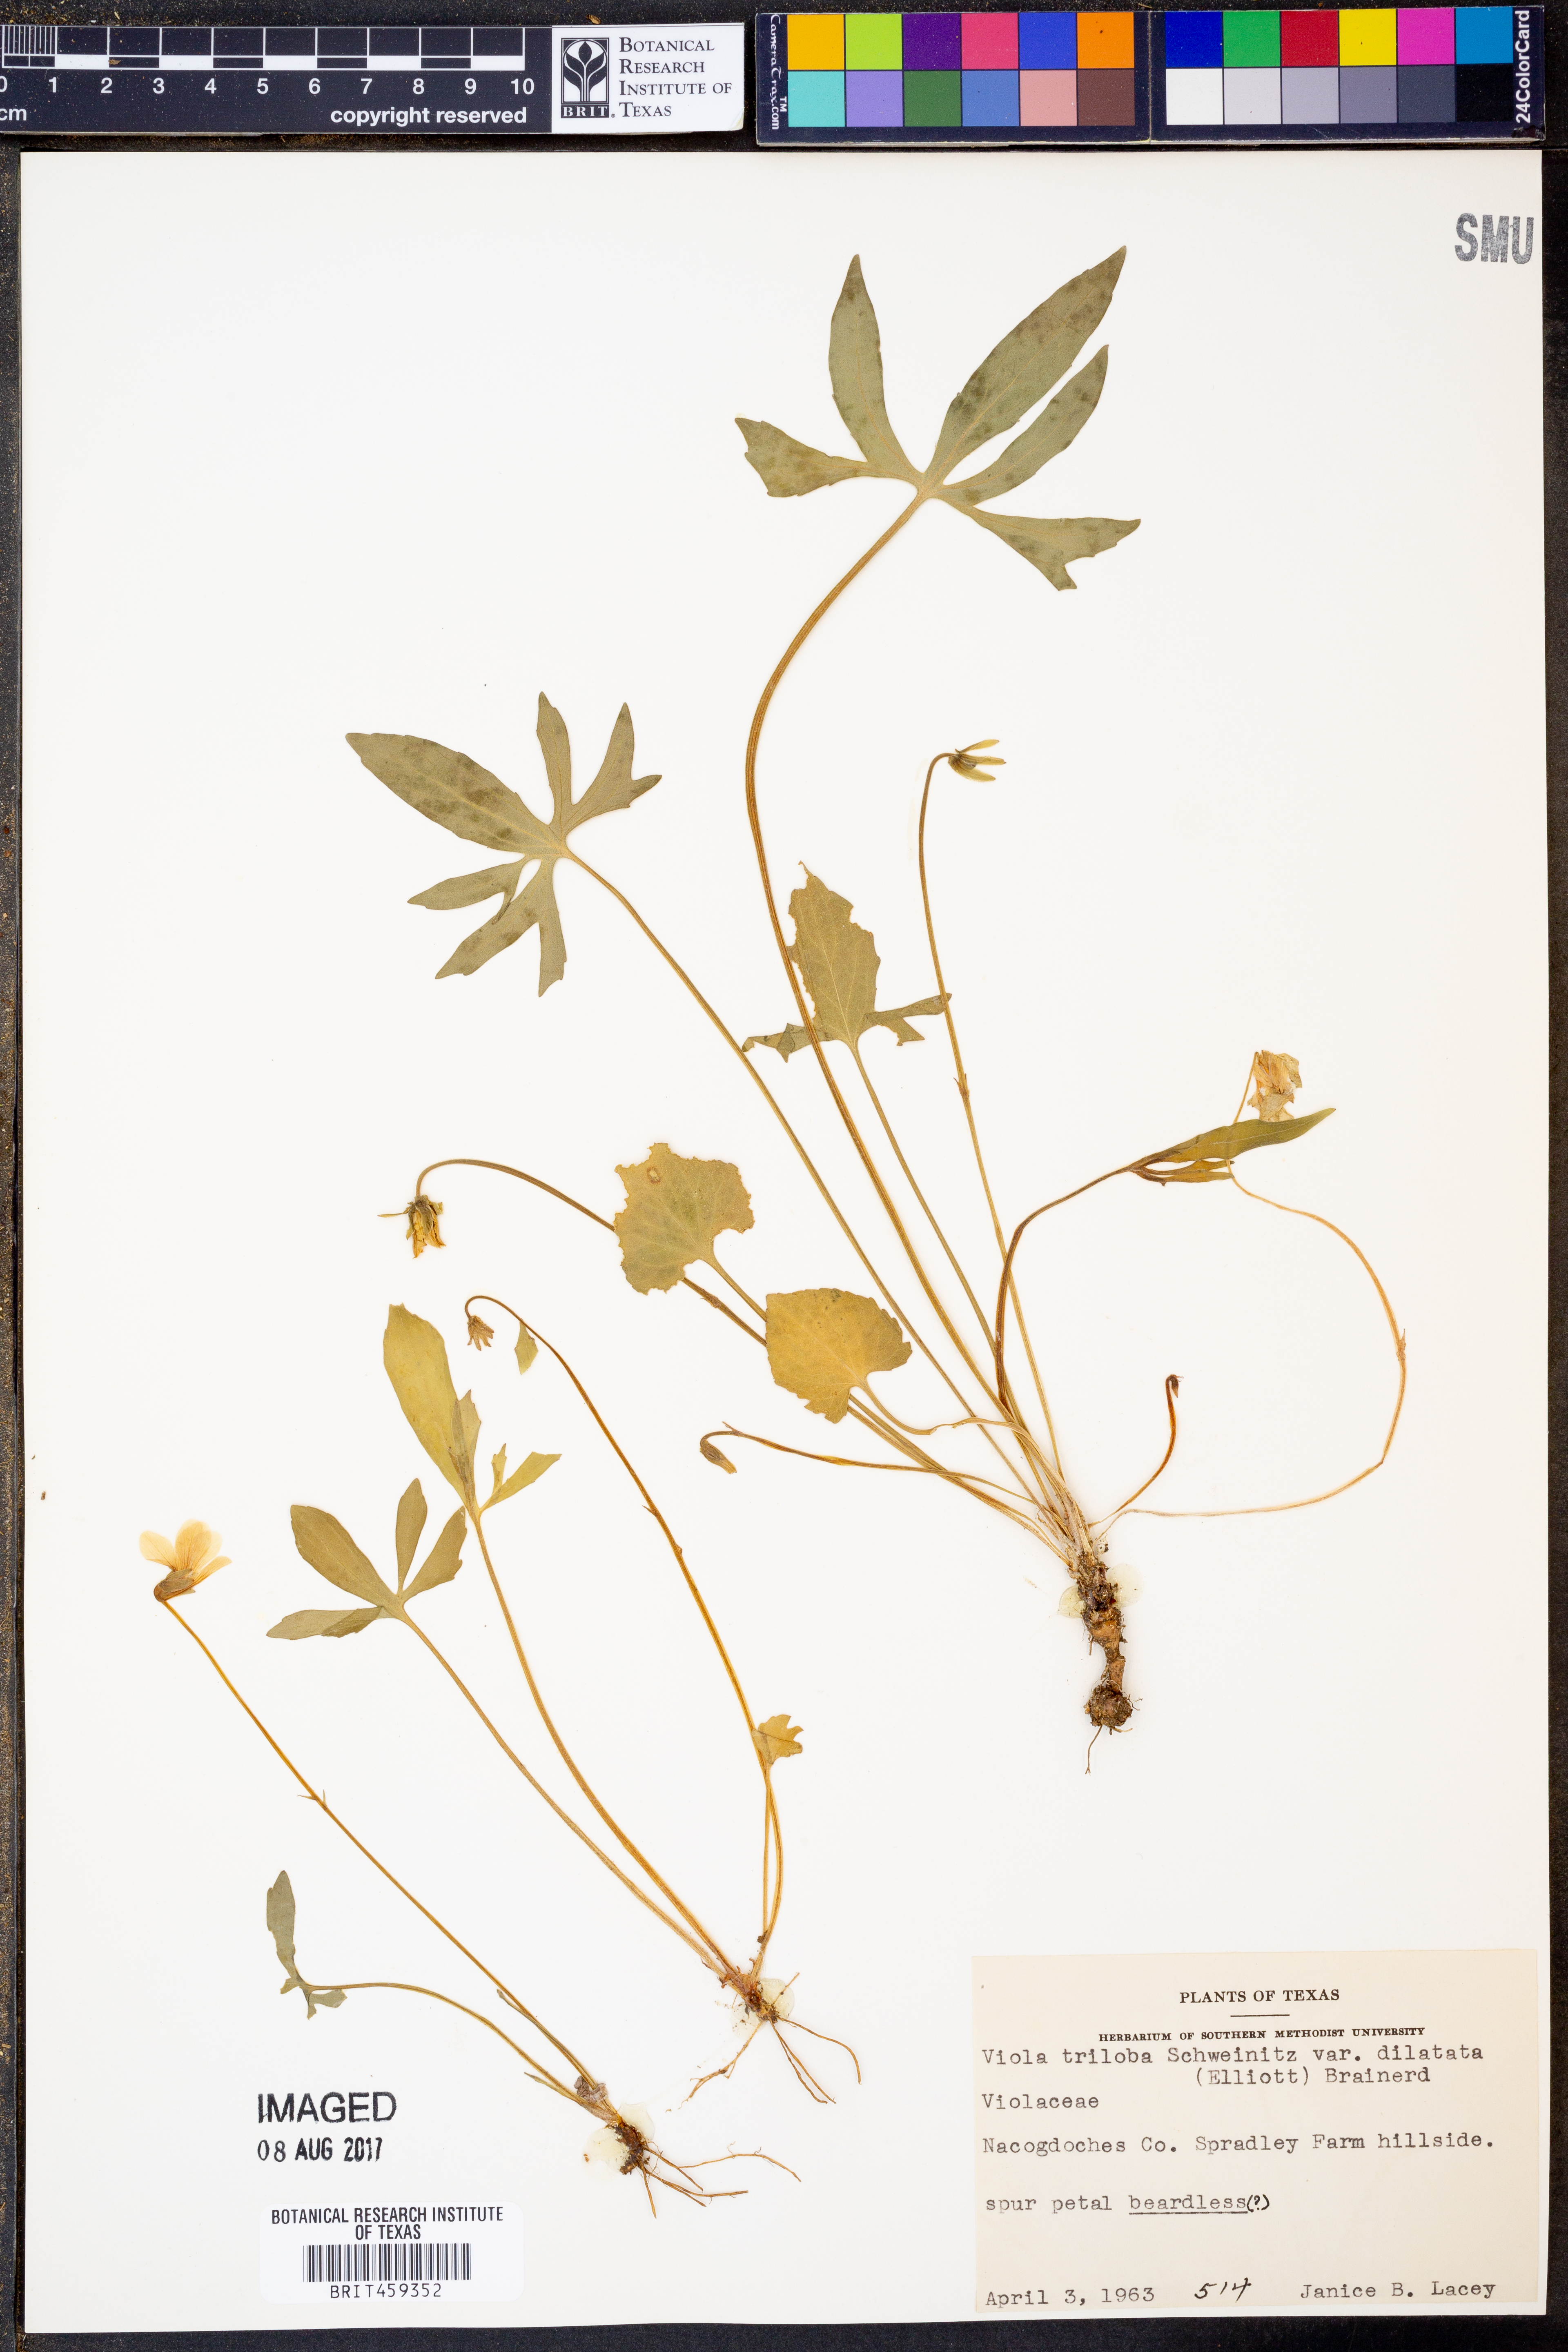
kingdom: Plantae
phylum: Tracheophyta
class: Magnoliopsida
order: Malpighiales
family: Violaceae
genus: Viola
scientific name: Viola palmata
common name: Early blue violet
